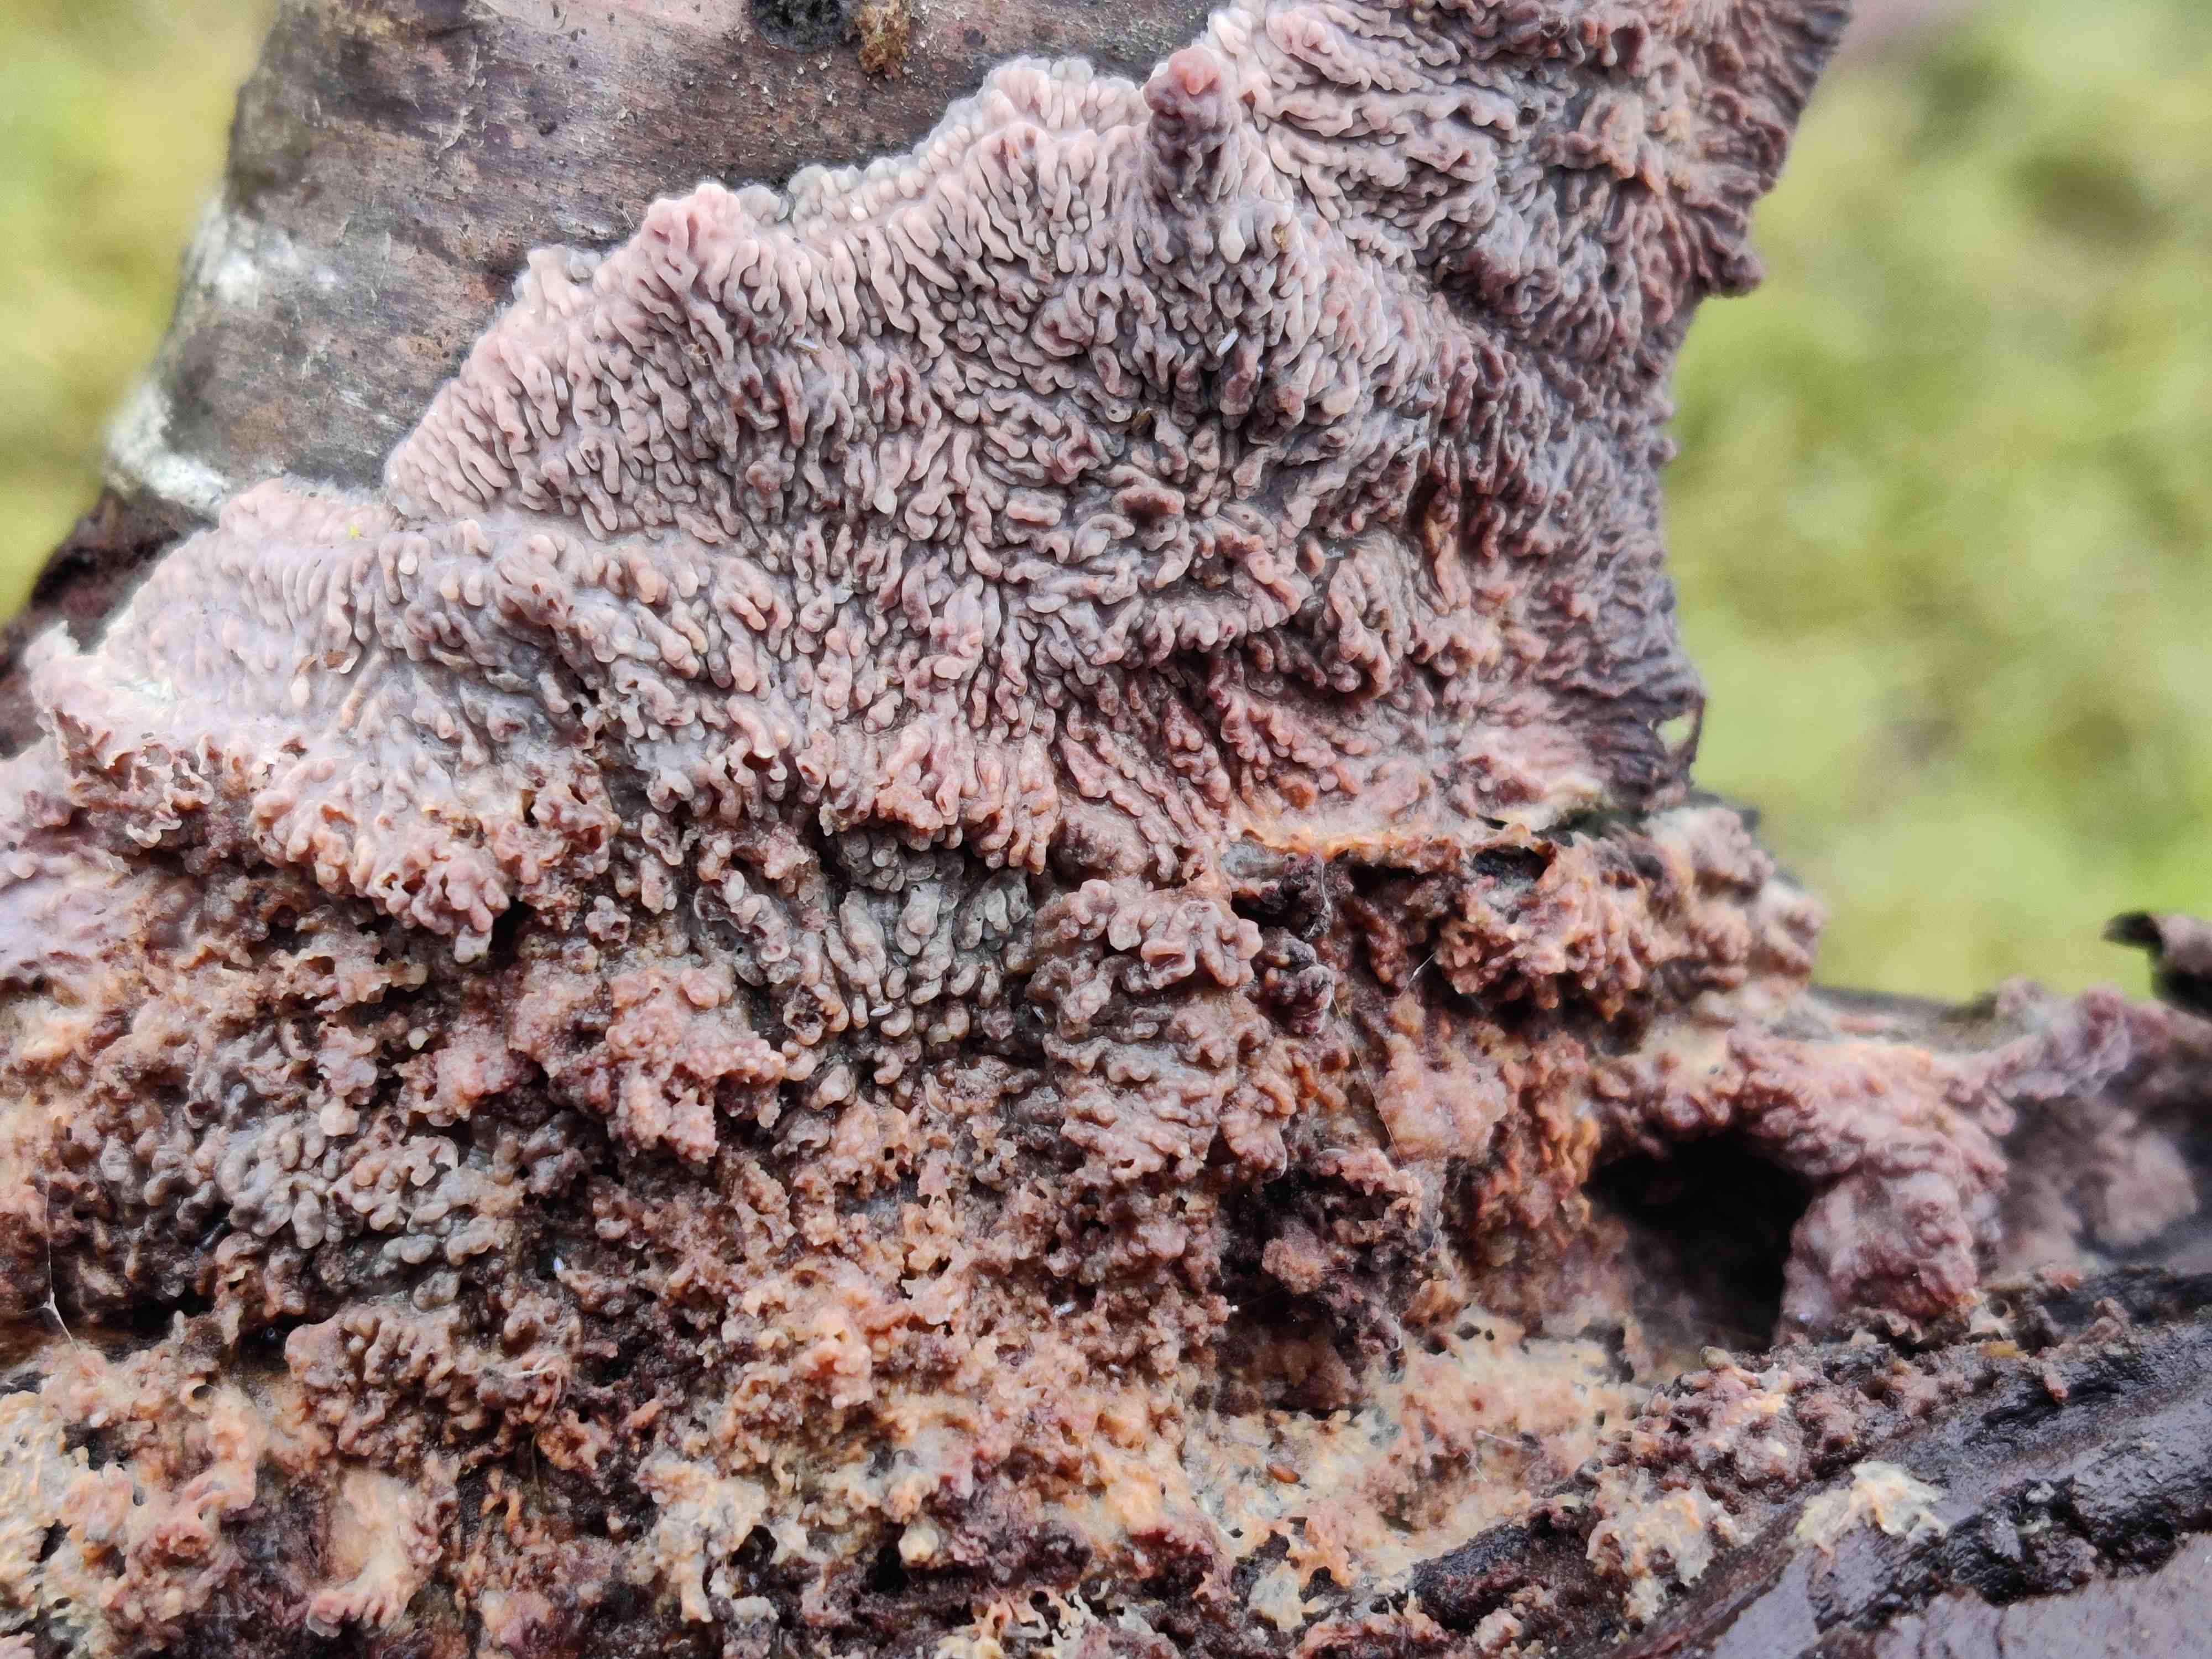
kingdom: Fungi
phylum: Basidiomycota
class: Agaricomycetes
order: Polyporales
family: Meruliaceae
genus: Phlebia
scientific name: Phlebia radiata
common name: stråle-åresvamp
